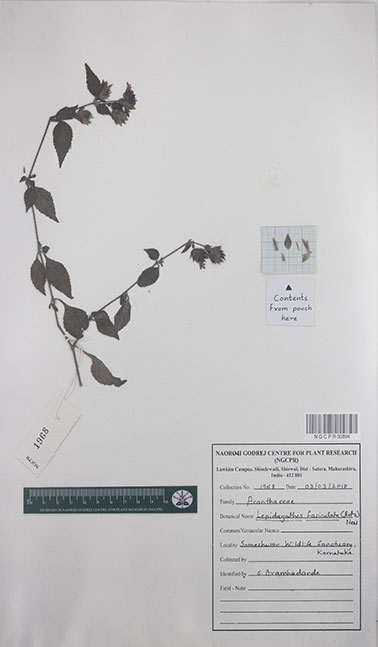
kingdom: Plantae
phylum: Tracheophyta
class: Magnoliopsida
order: Lamiales
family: Acanthaceae
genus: Lepidagathis
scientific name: Lepidagathis fasciculata
